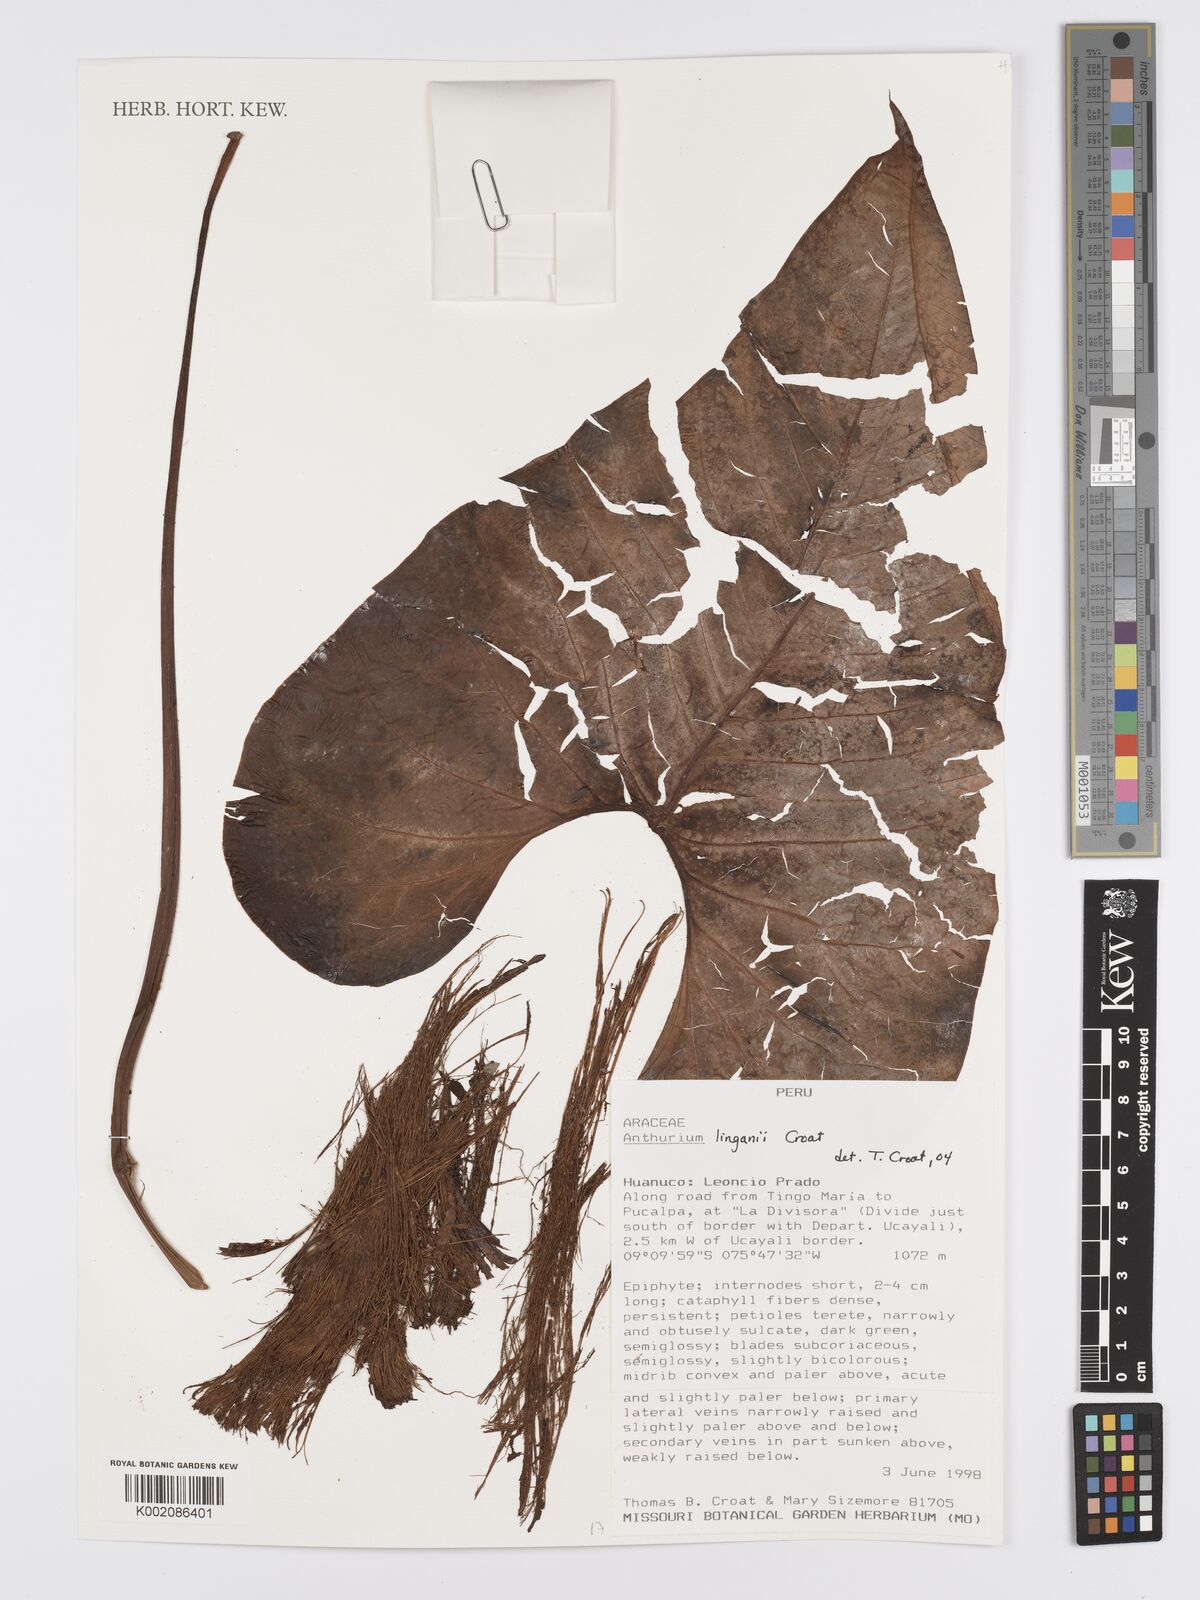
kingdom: Plantae
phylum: Tracheophyta
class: Liliopsida
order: Alismatales
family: Araceae
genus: Anthurium
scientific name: Anthurium linganii
